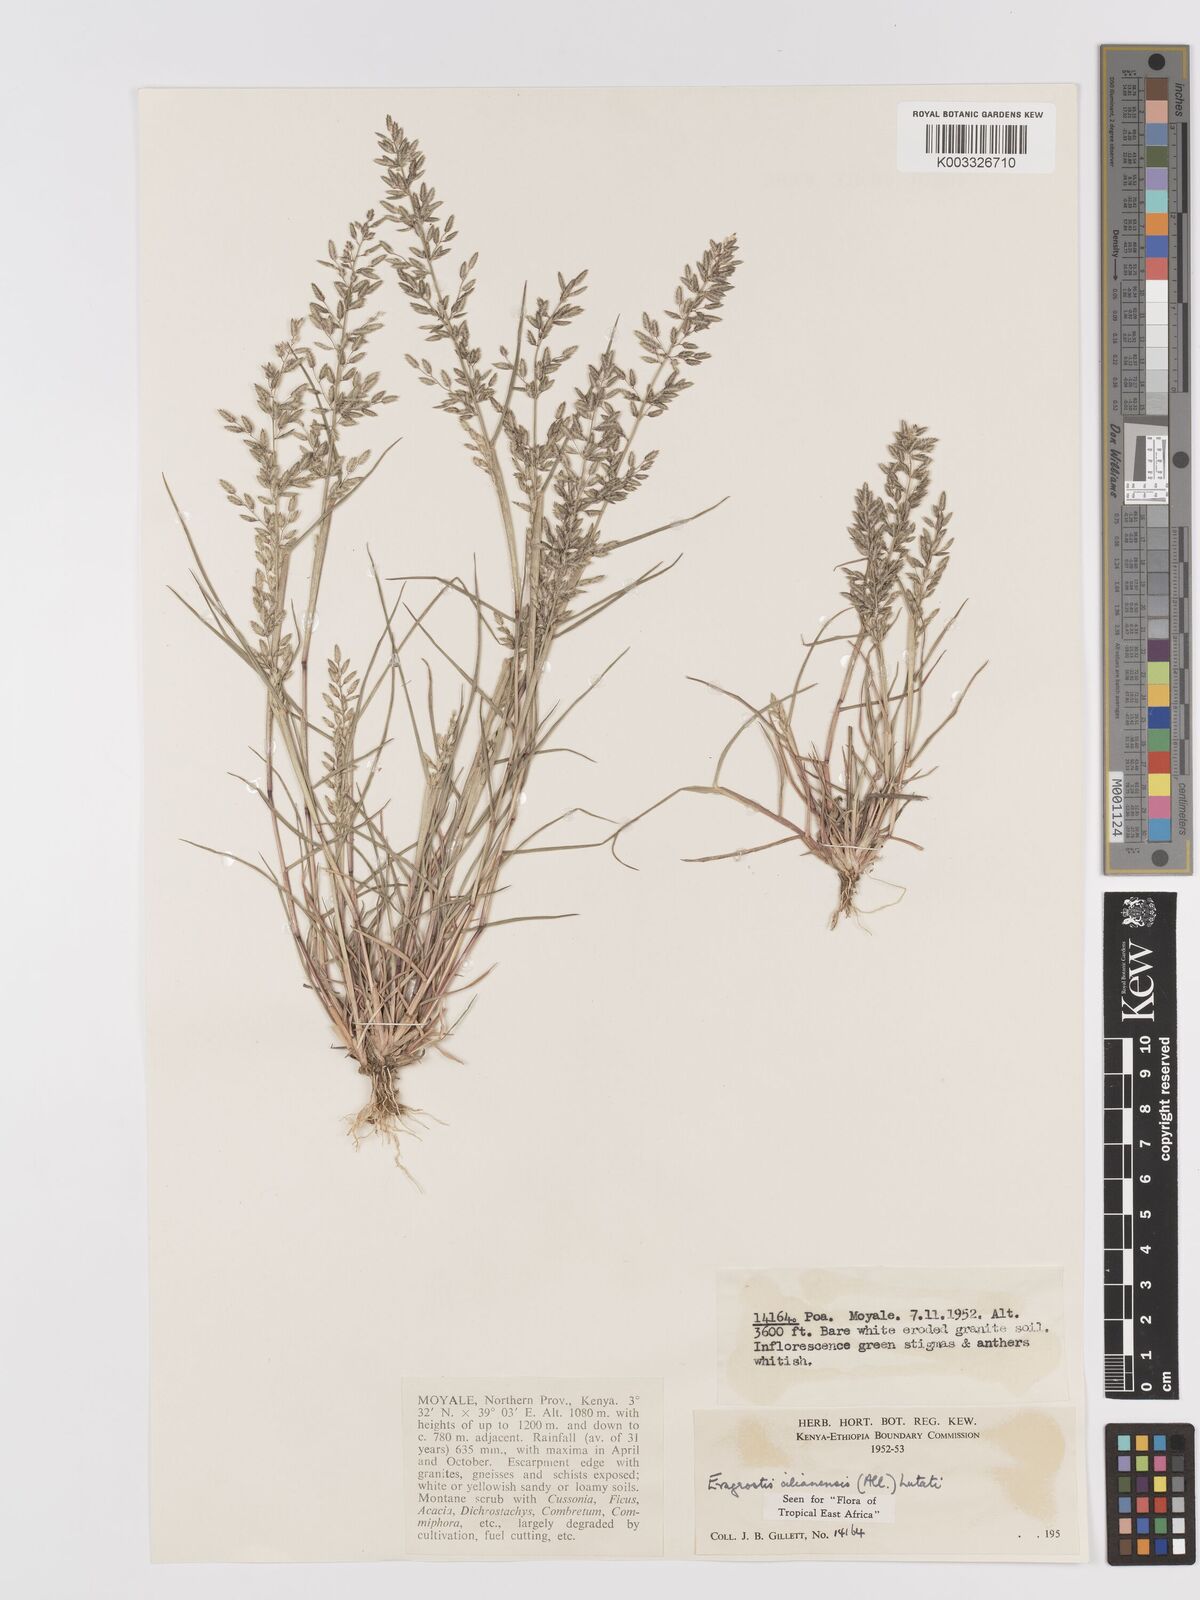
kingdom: Plantae
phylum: Tracheophyta
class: Liliopsida
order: Poales
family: Poaceae
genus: Eragrostis
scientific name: Eragrostis cilianensis
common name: Stinkgrass
